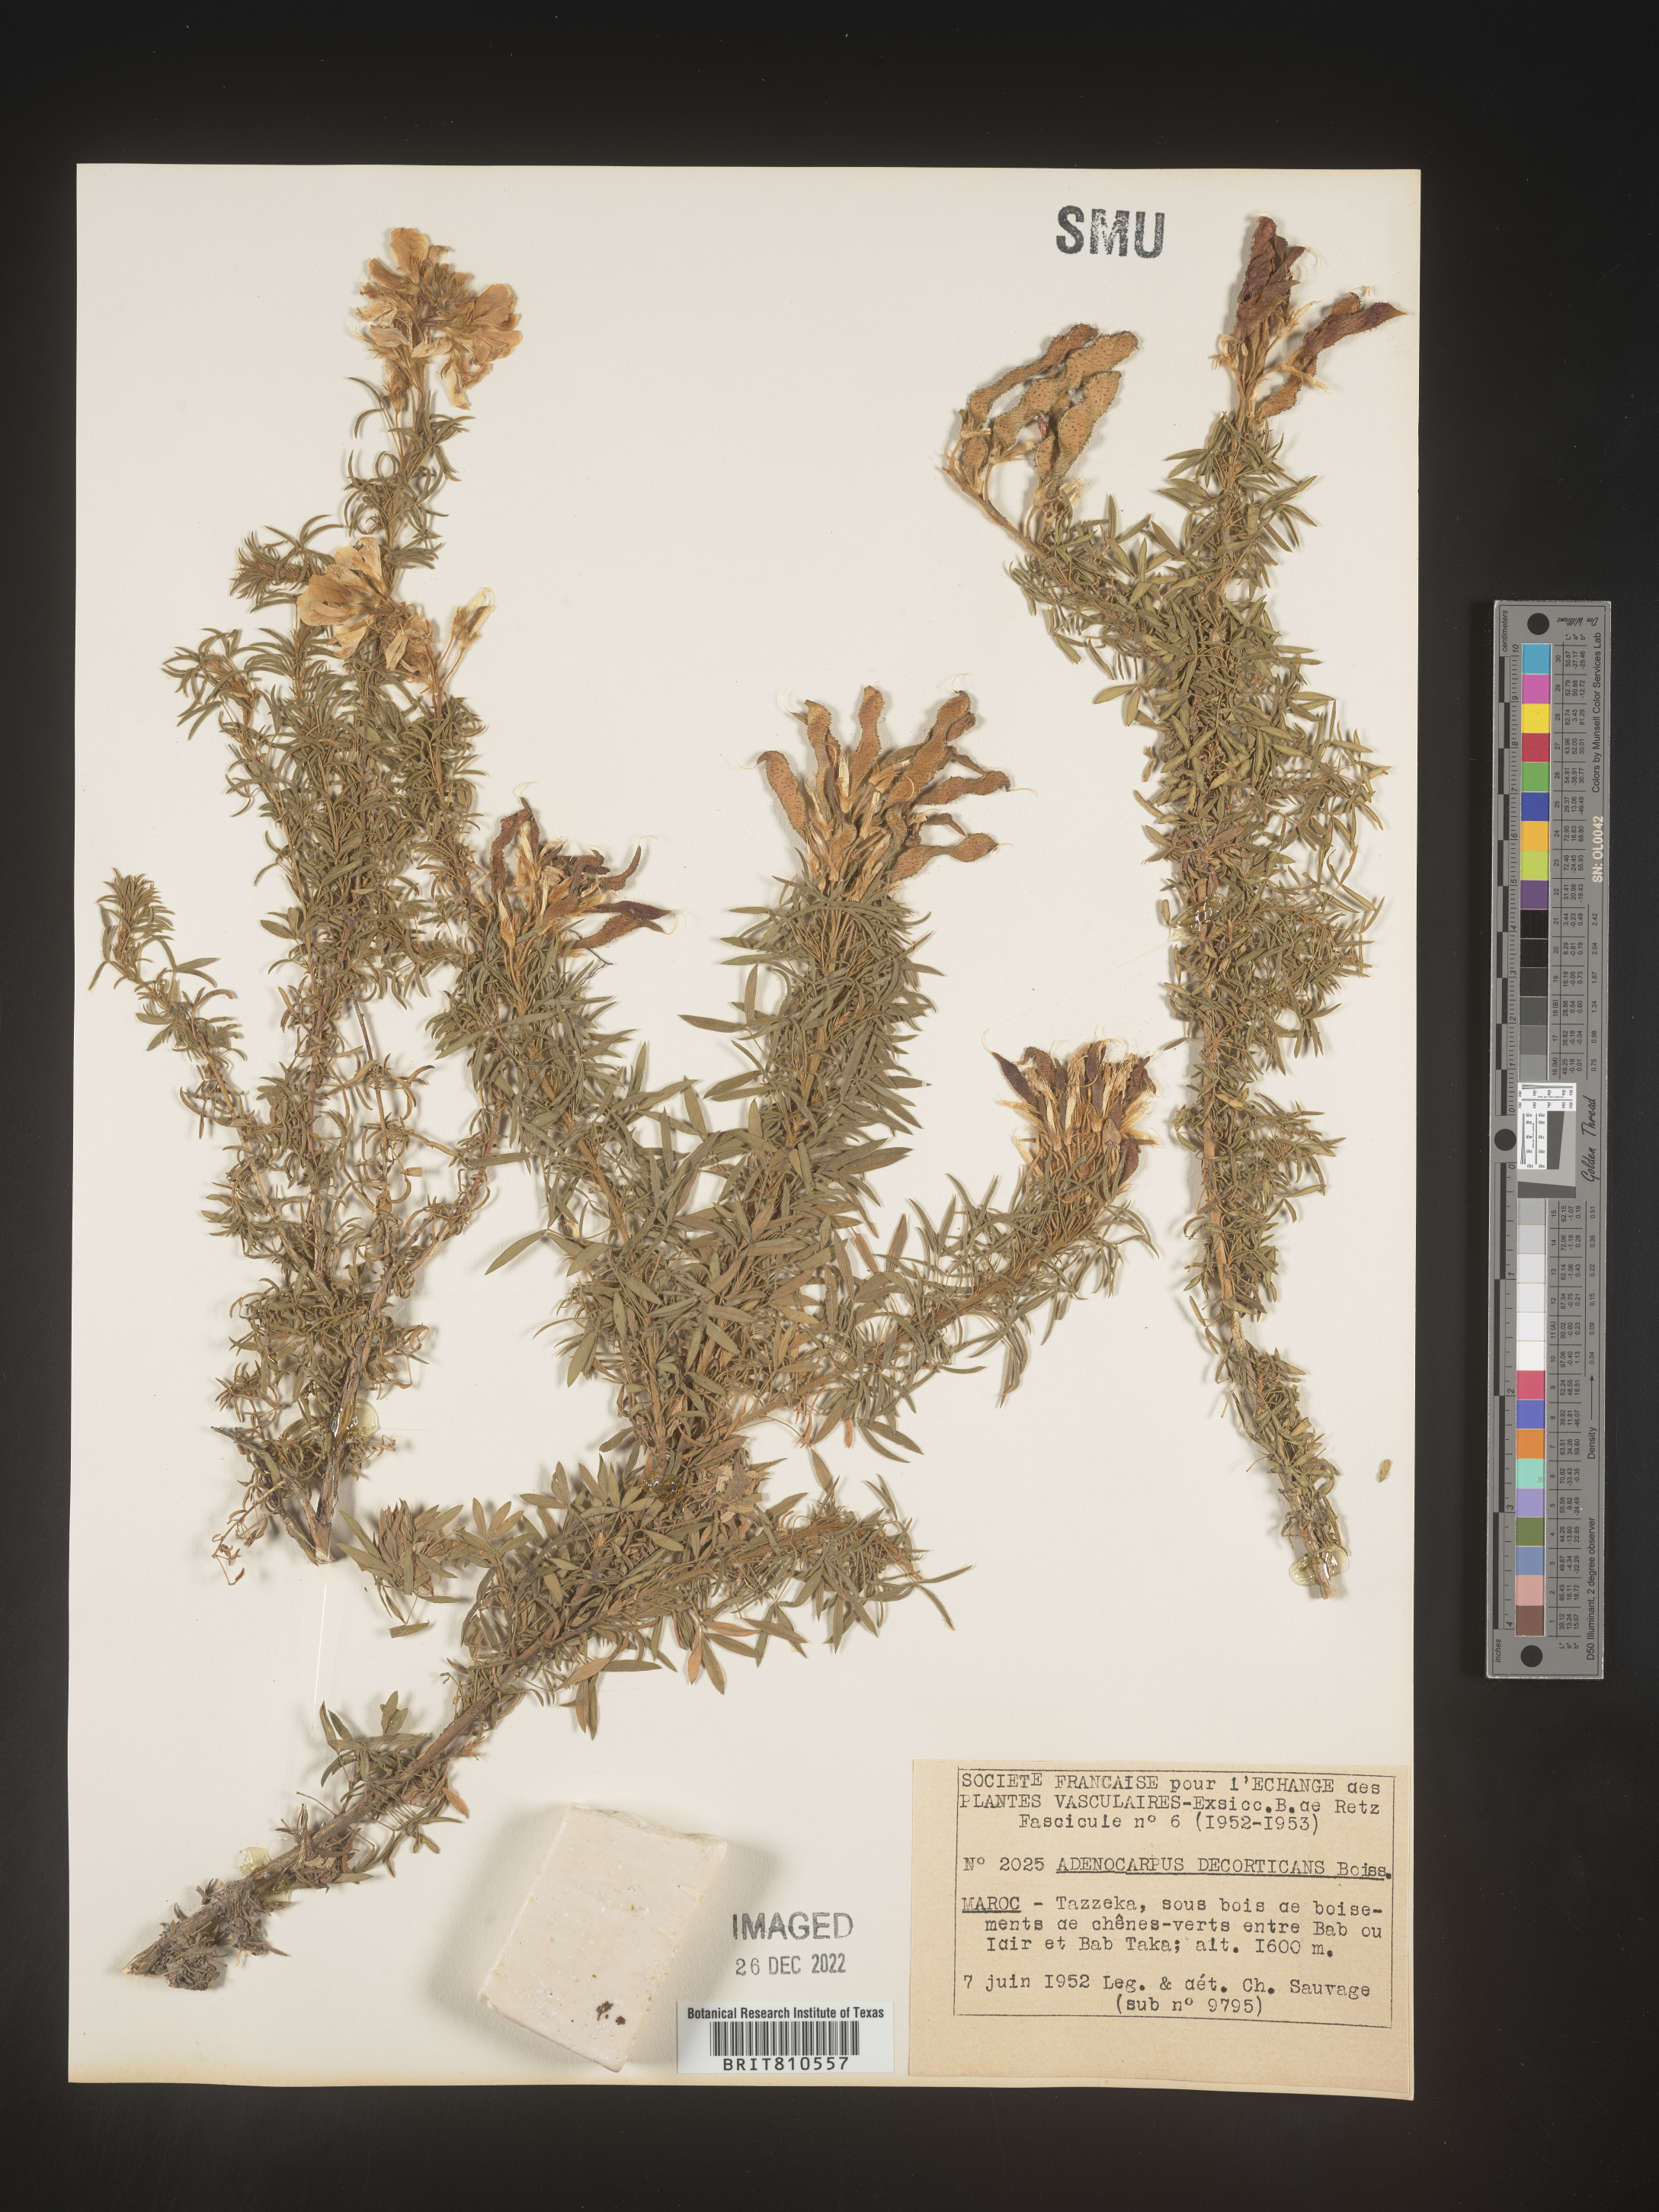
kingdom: Plantae
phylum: Tracheophyta
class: Magnoliopsida
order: Fabales
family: Fabaceae
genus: Adenocarpus
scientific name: Adenocarpus
